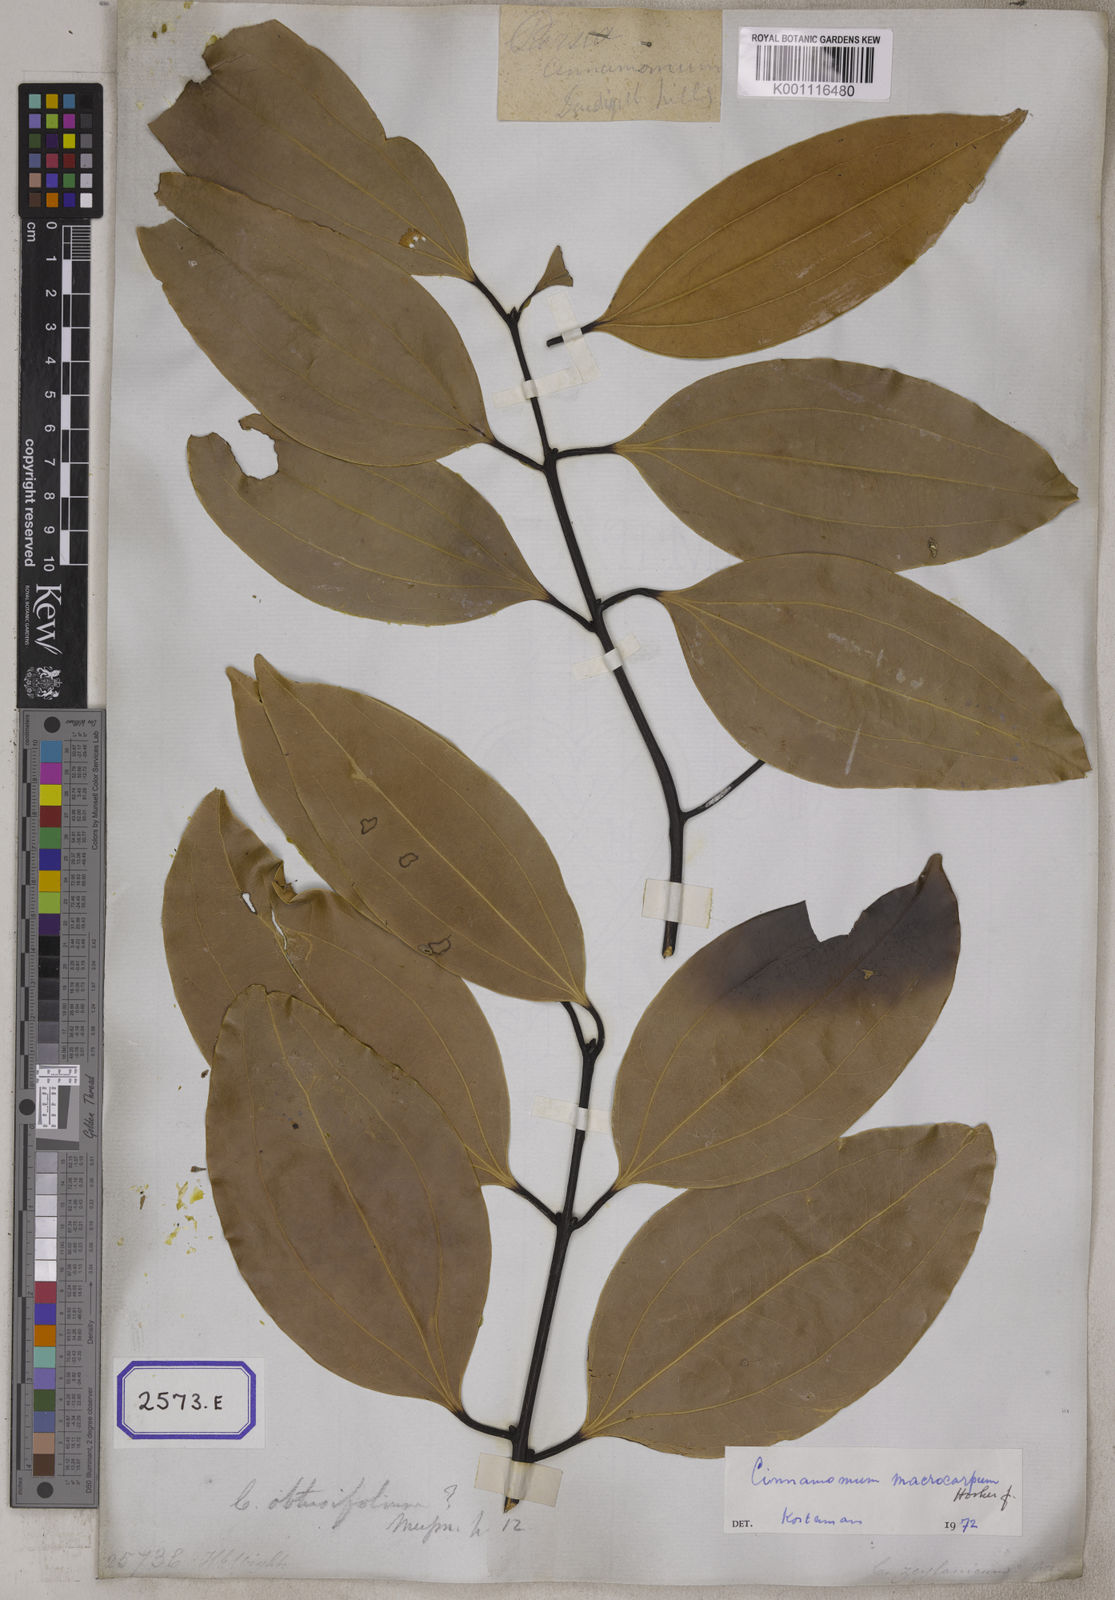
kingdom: Plantae
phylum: Tracheophyta
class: Magnoliopsida
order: Laurales
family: Lauraceae
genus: Cinnamomum
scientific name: Cinnamomum verum
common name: Cinnamon
